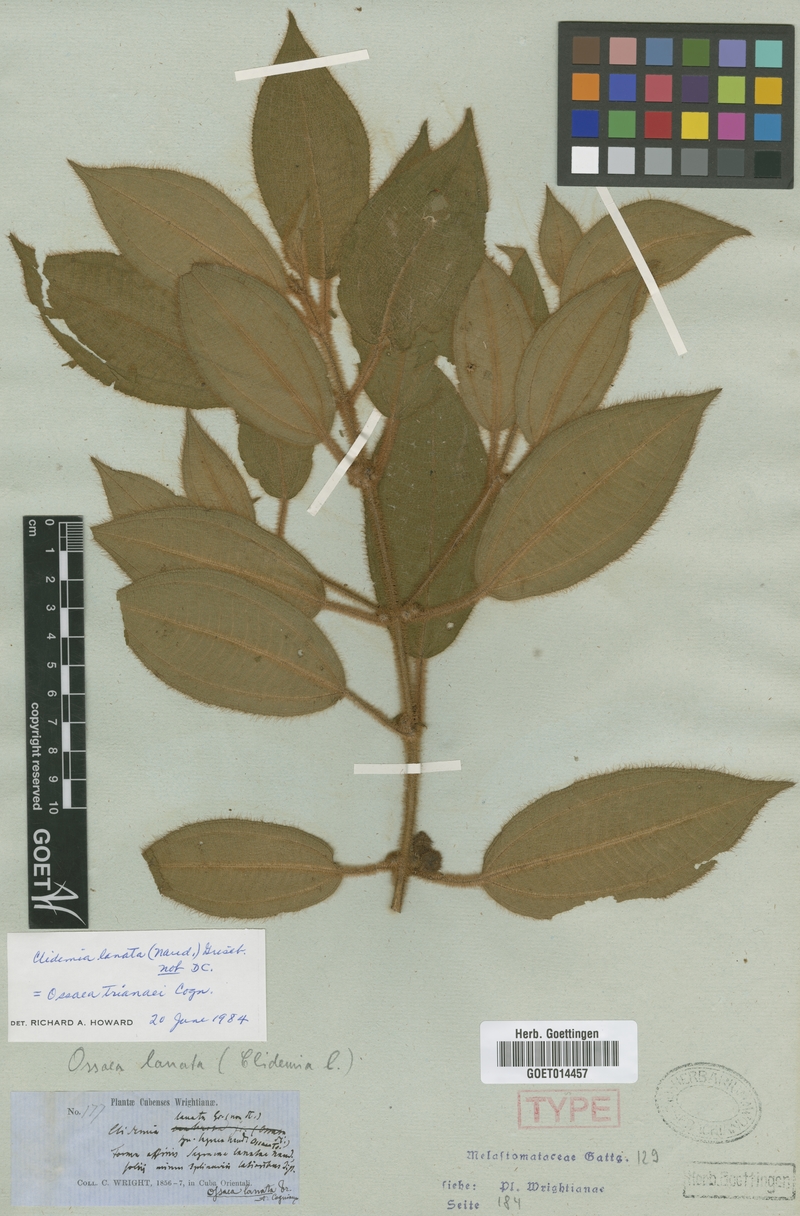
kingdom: Plantae
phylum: Tracheophyta
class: Magnoliopsida
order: Myrtales
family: Melastomataceae
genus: Miconia
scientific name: Miconia trianana
